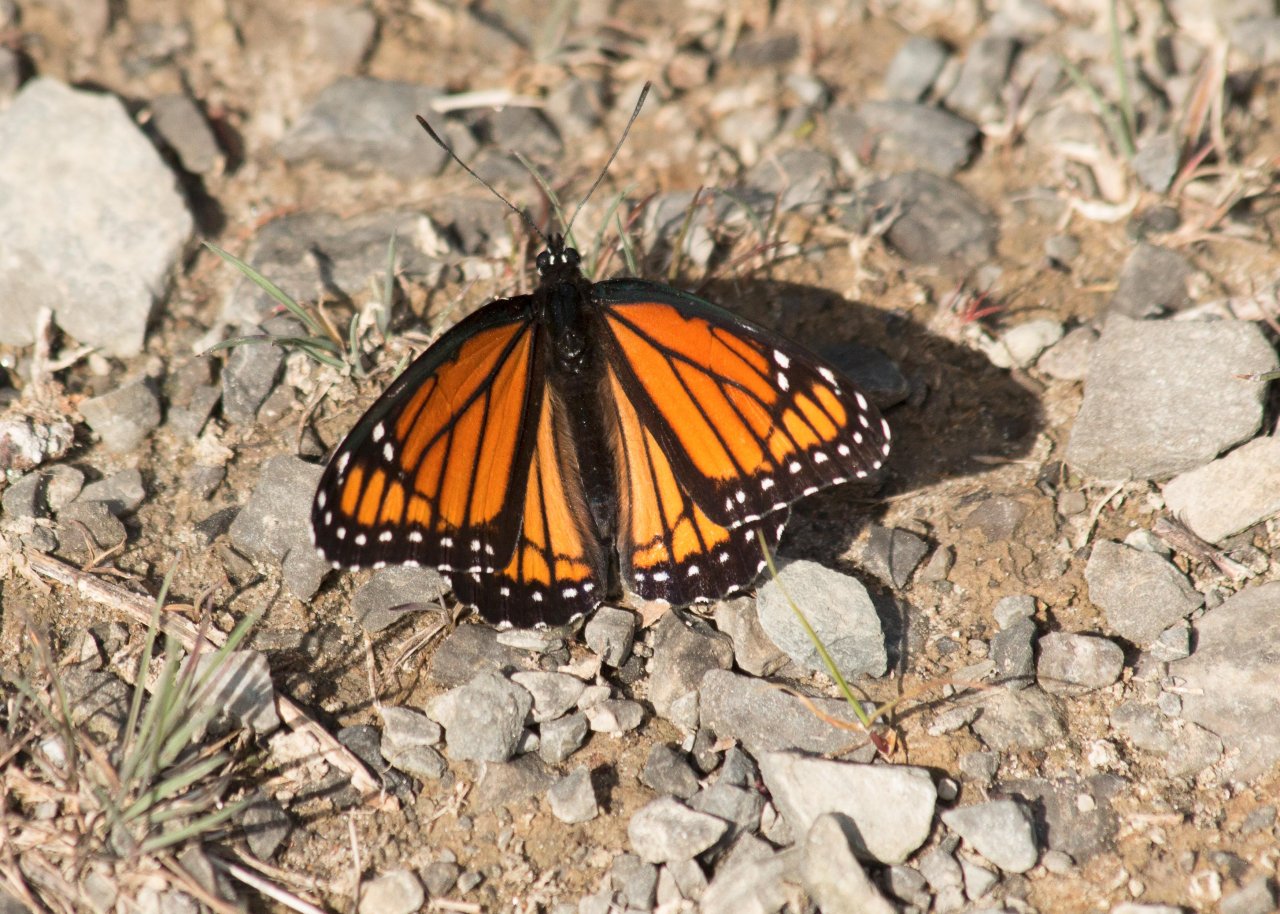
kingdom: Animalia
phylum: Arthropoda
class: Insecta
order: Lepidoptera
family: Nymphalidae
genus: Limenitis
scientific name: Limenitis archippus
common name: Viceroy
